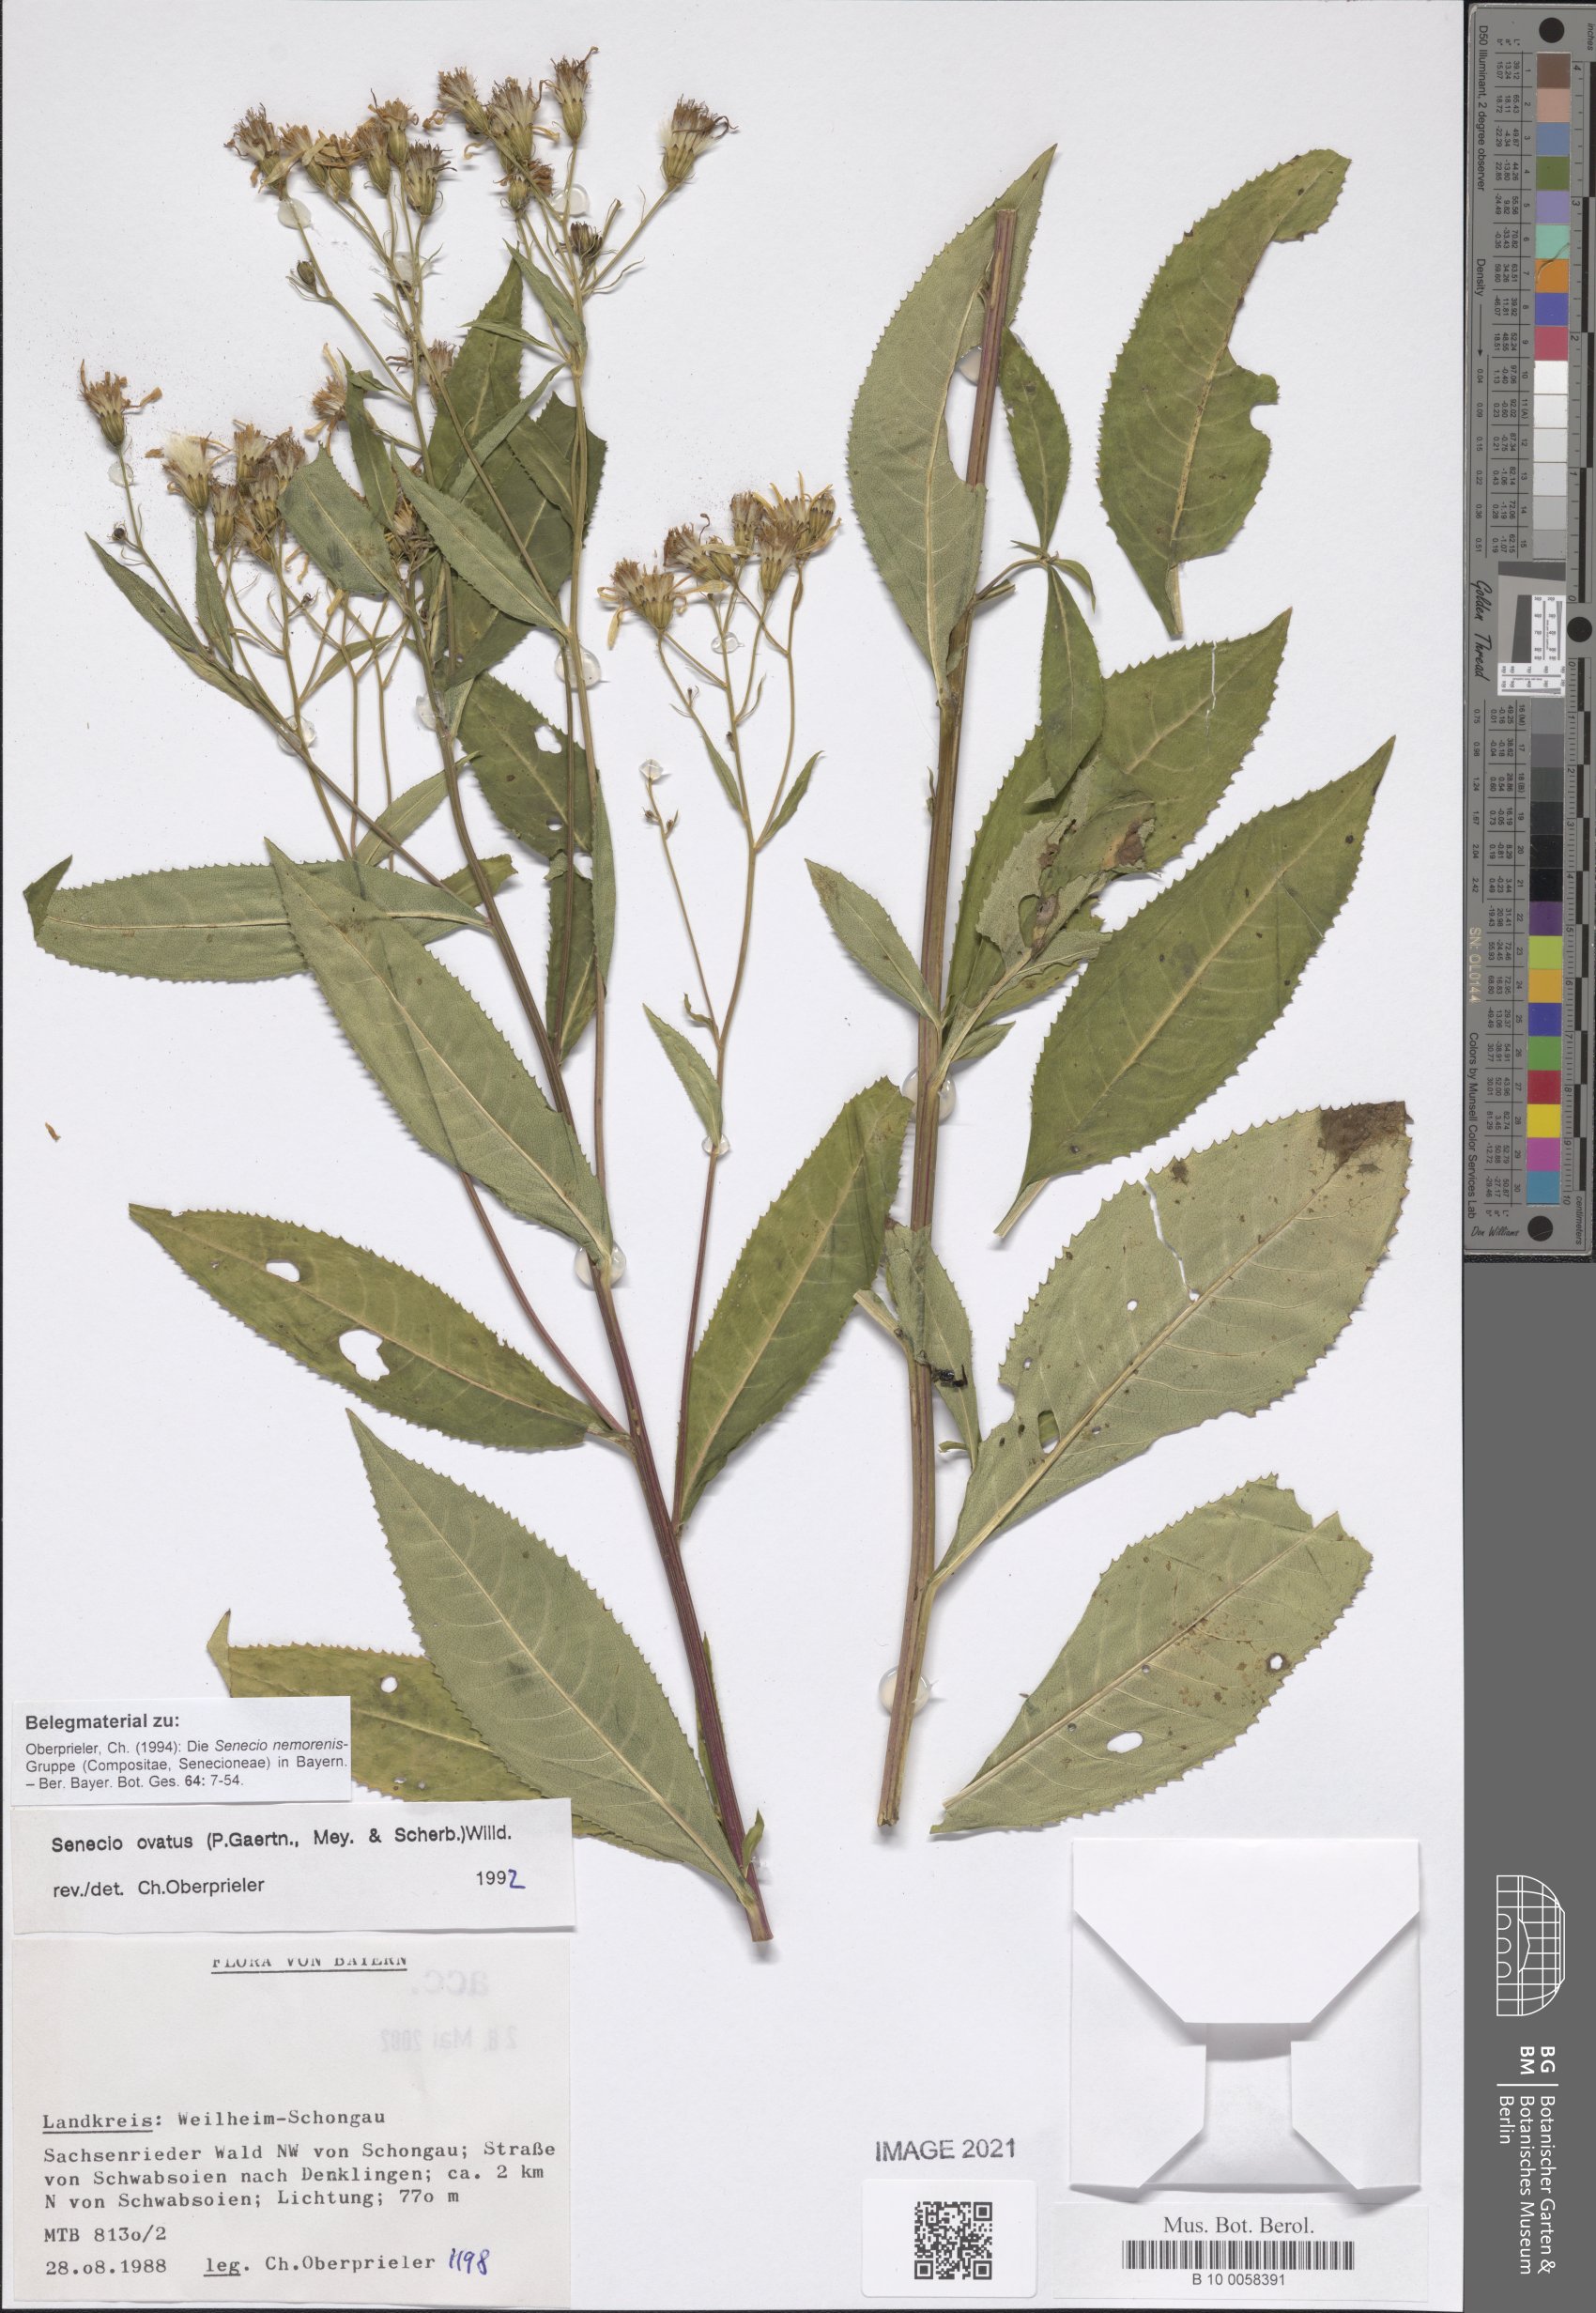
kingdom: Plantae
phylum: Tracheophyta
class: Magnoliopsida
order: Asterales
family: Asteraceae
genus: Senecio
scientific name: Senecio ovatus
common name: Wood ragwort
